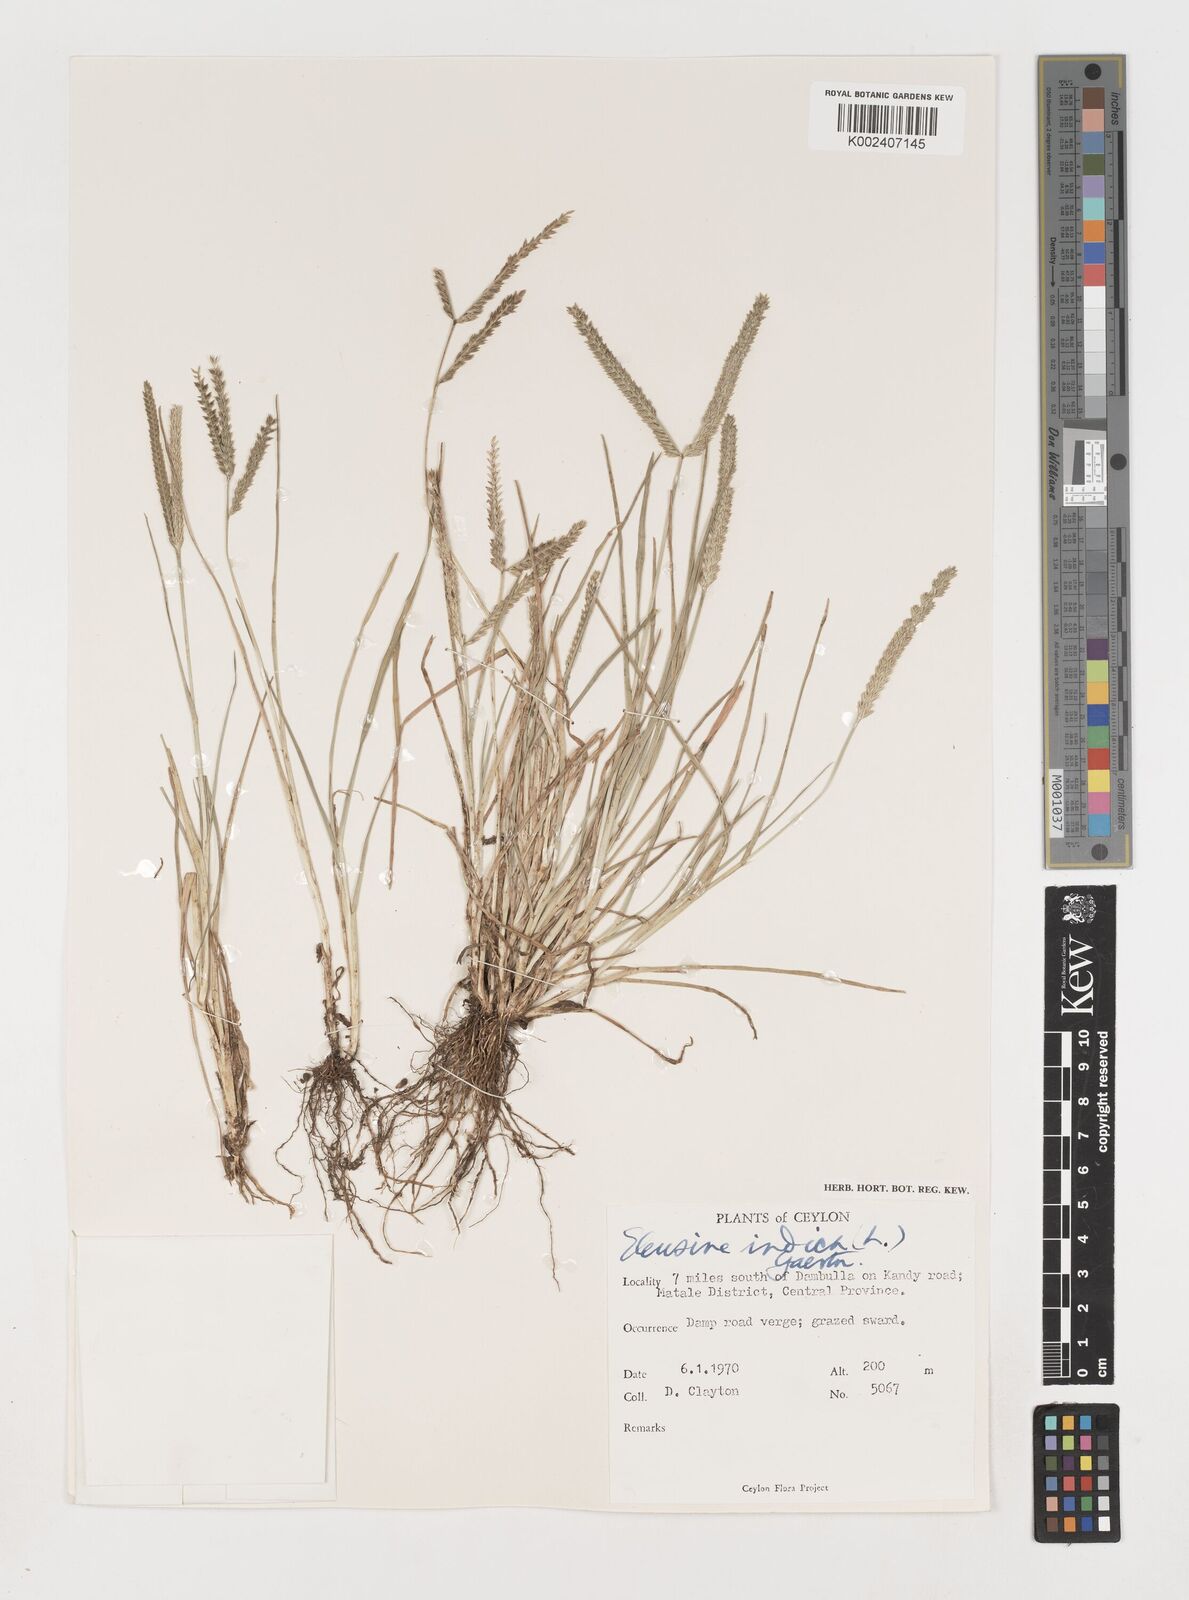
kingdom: Plantae
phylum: Tracheophyta
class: Liliopsida
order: Poales
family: Poaceae
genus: Eleusine
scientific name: Eleusine indica
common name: Yard-grass
